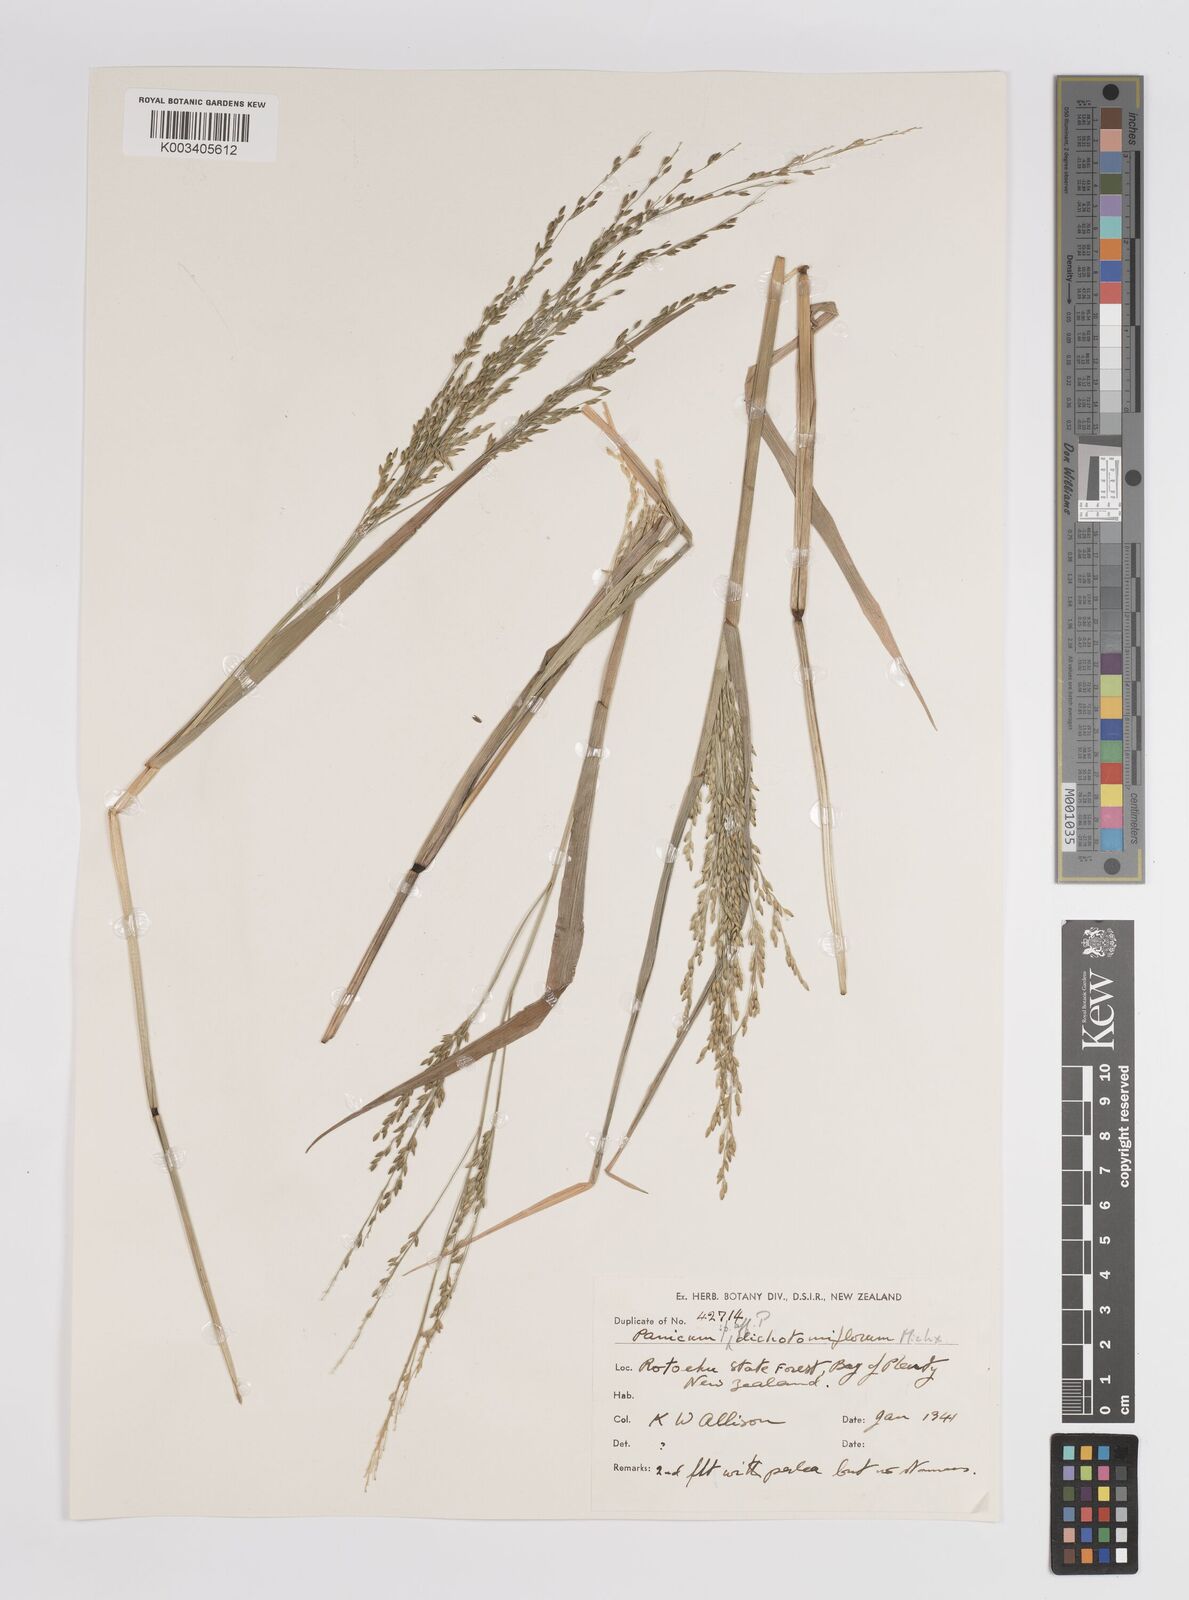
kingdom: Plantae
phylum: Tracheophyta
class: Liliopsida
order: Poales
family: Poaceae
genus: Panicum
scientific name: Panicum
